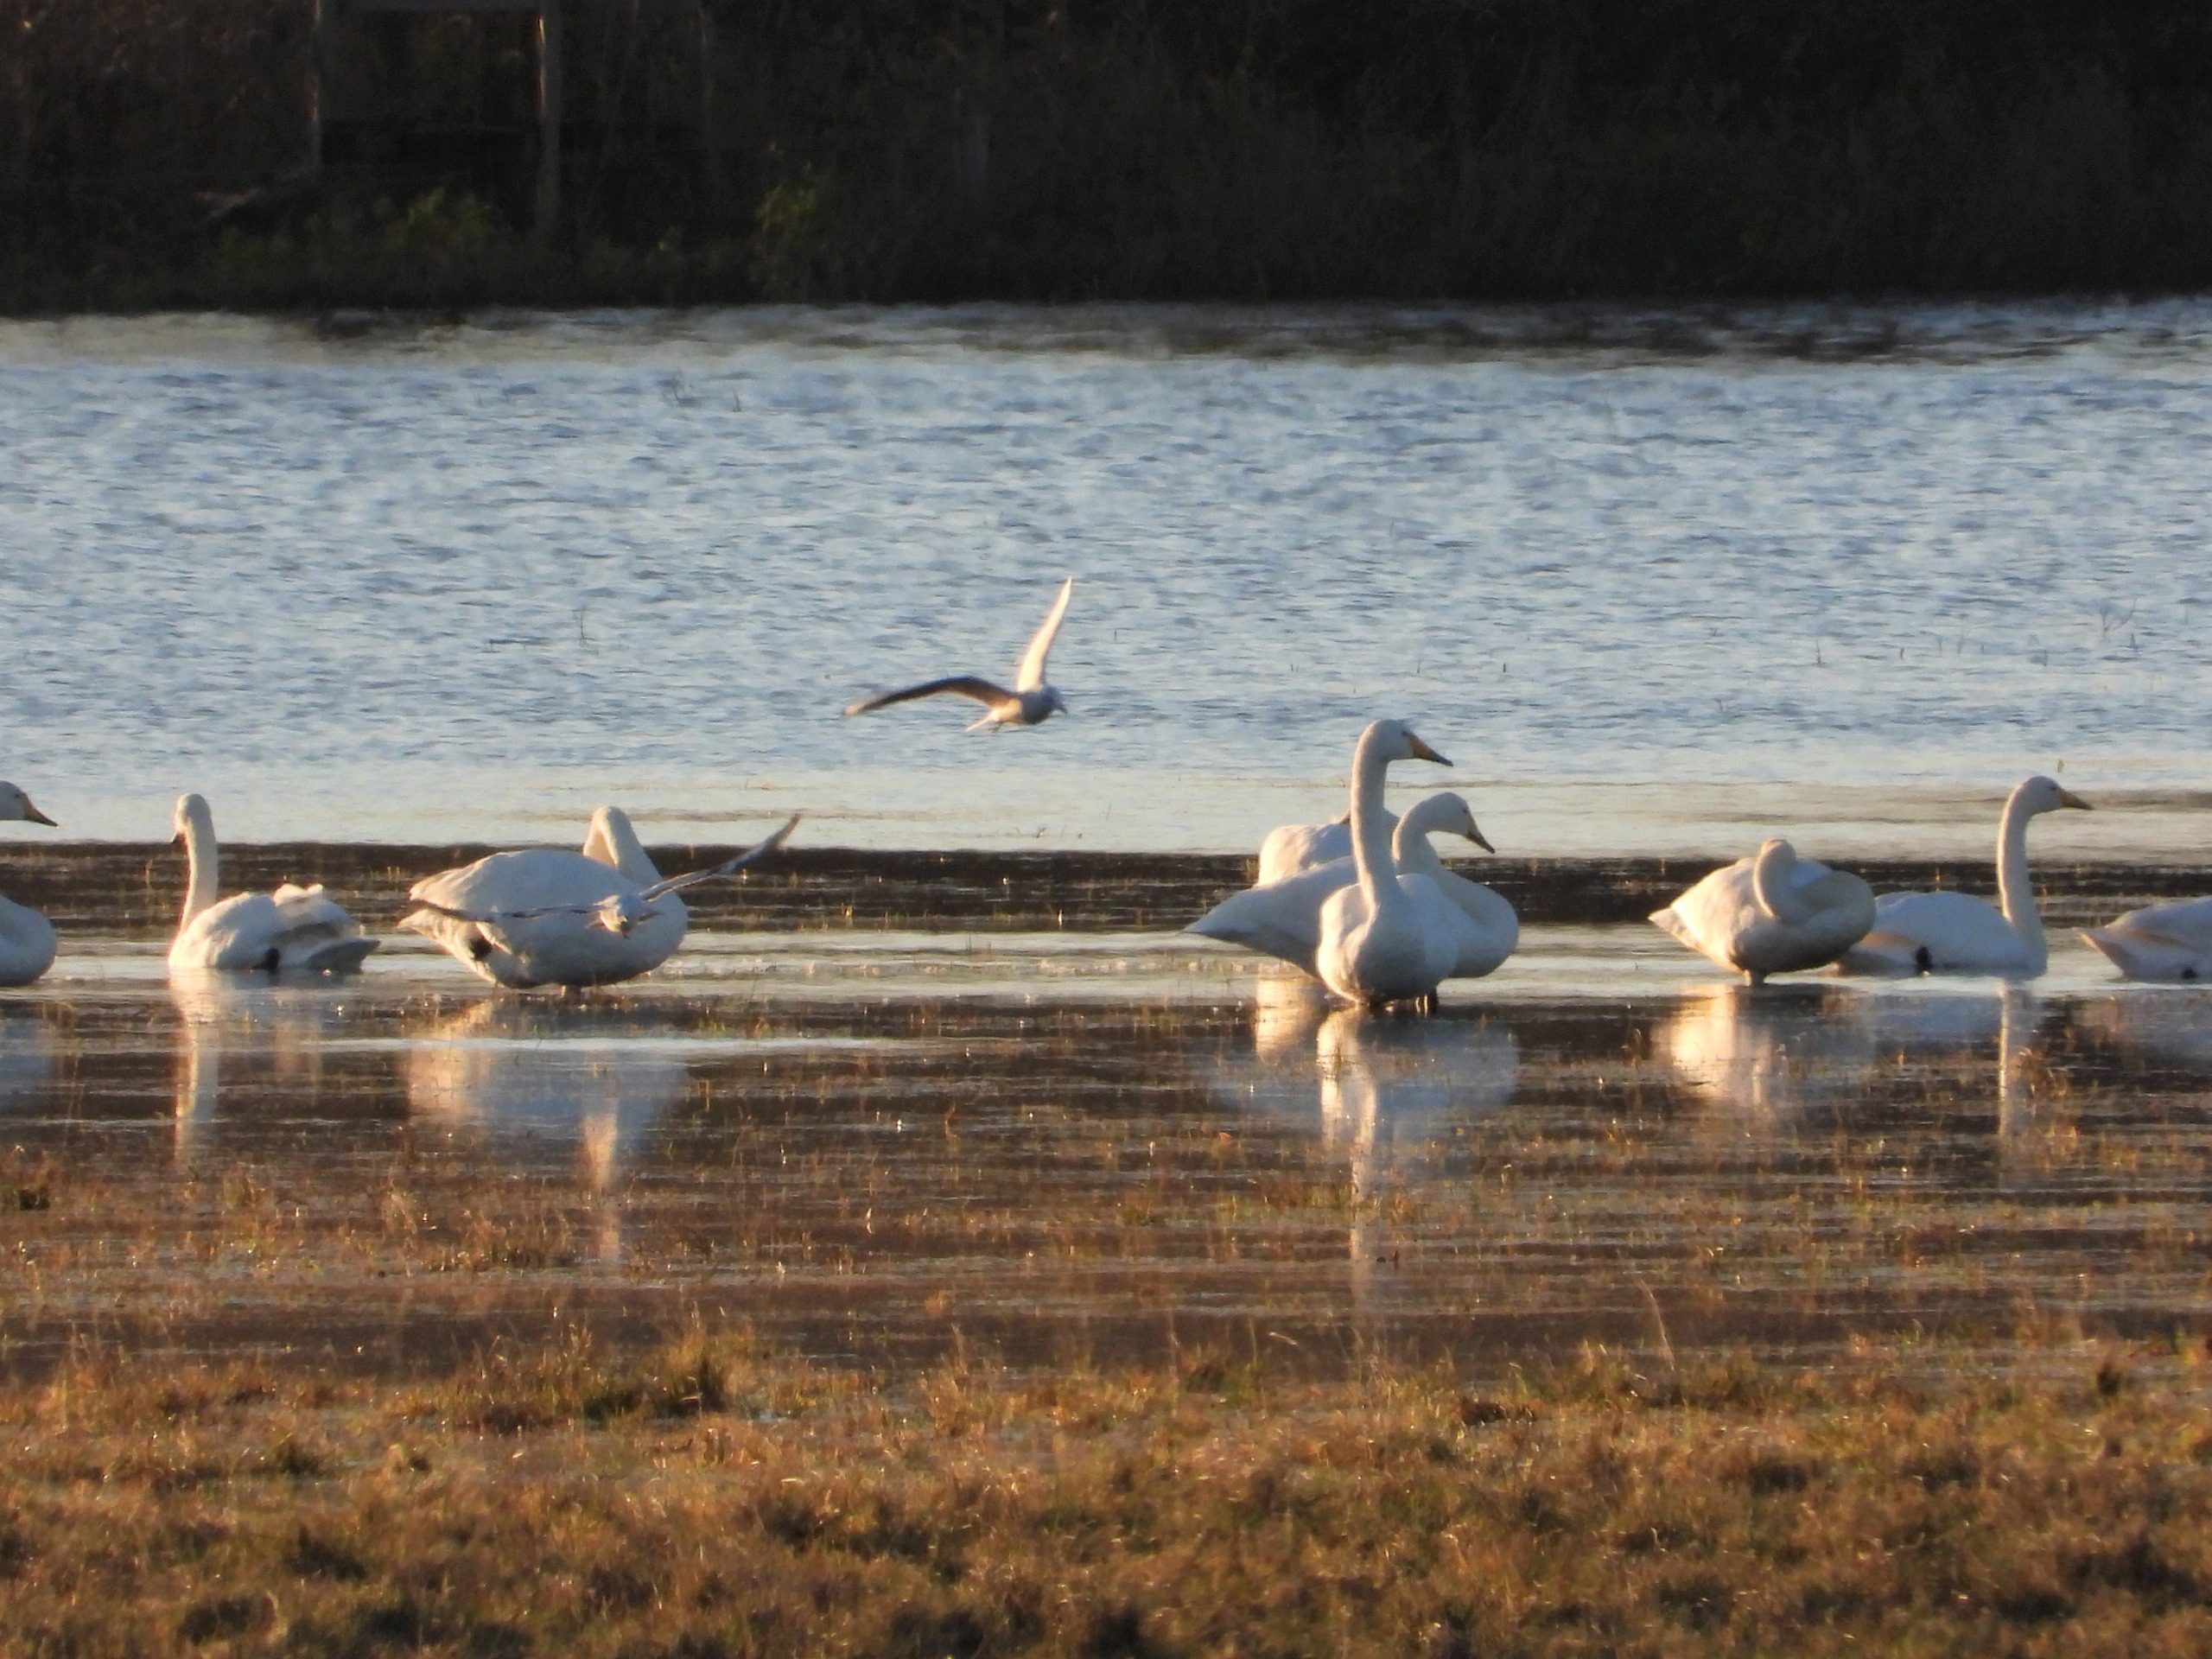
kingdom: Animalia
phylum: Chordata
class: Aves
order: Anseriformes
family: Anatidae
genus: Cygnus
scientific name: Cygnus cygnus
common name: Sangsvane
